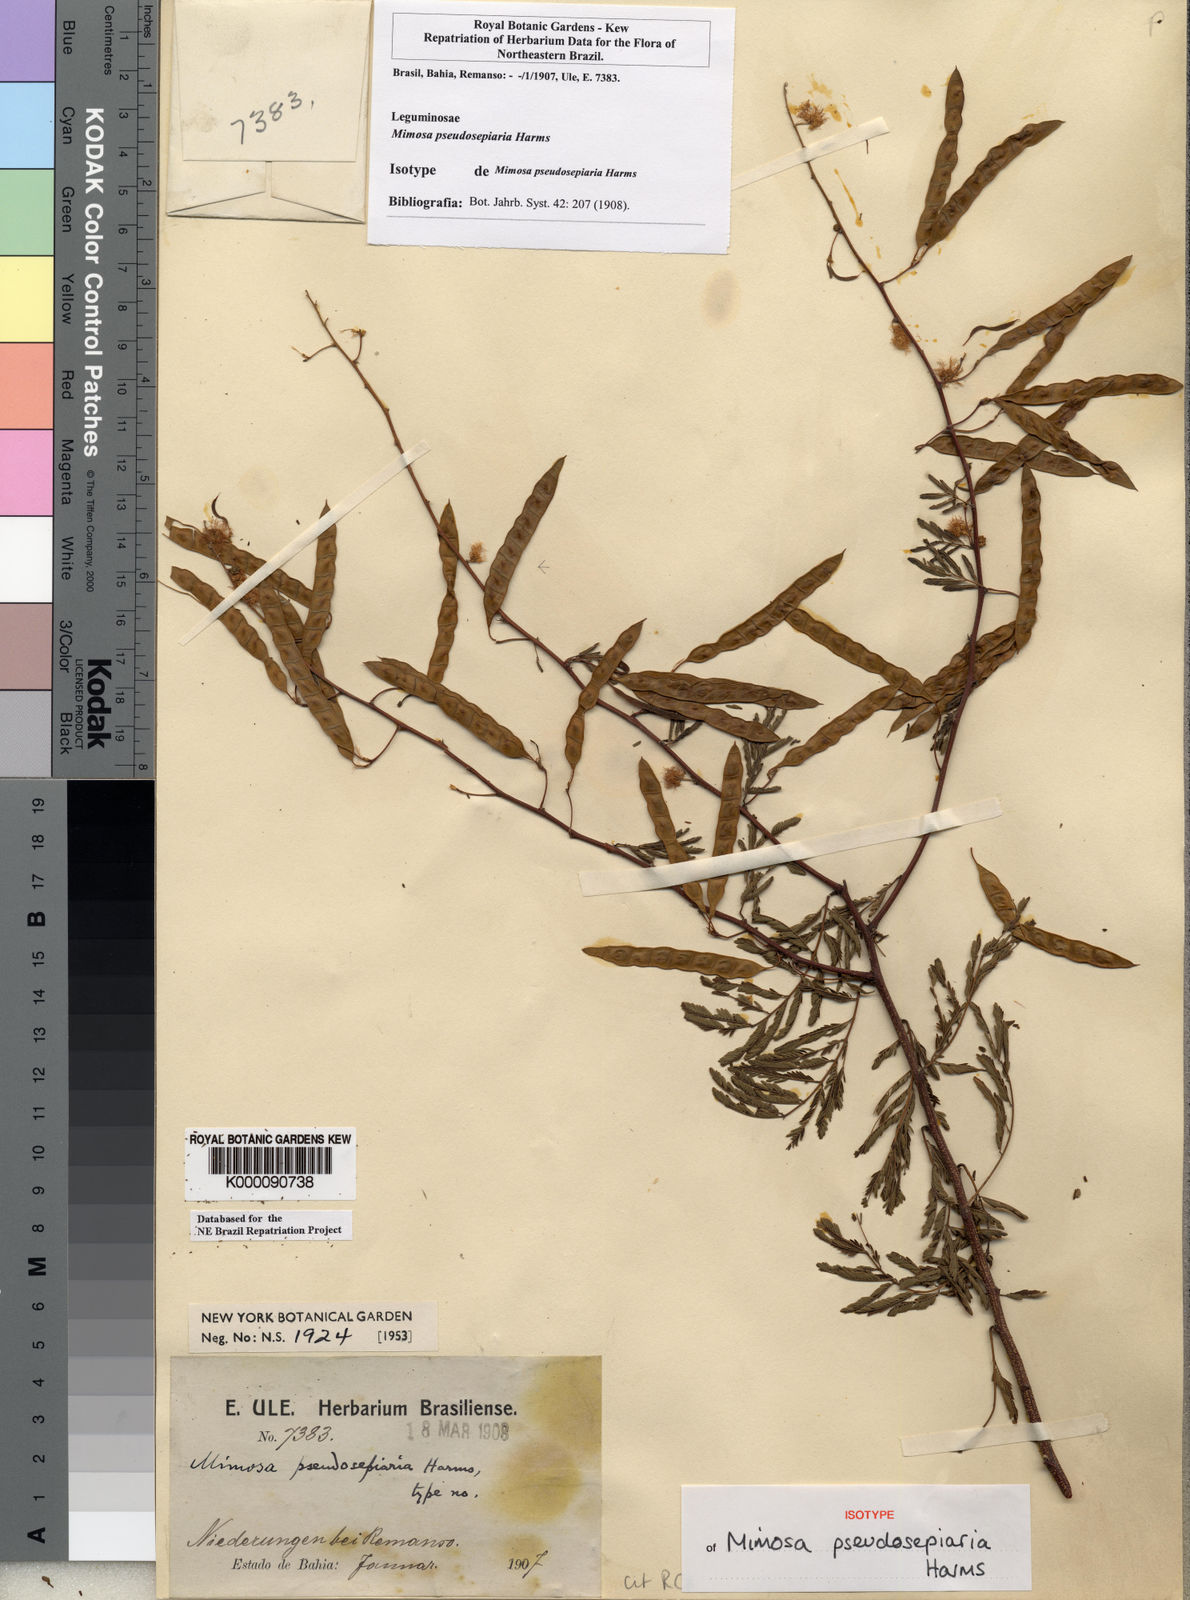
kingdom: Plantae
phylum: Tracheophyta
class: Magnoliopsida
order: Fabales
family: Fabaceae
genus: Mimosa
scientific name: Mimosa pseudosepiaria
